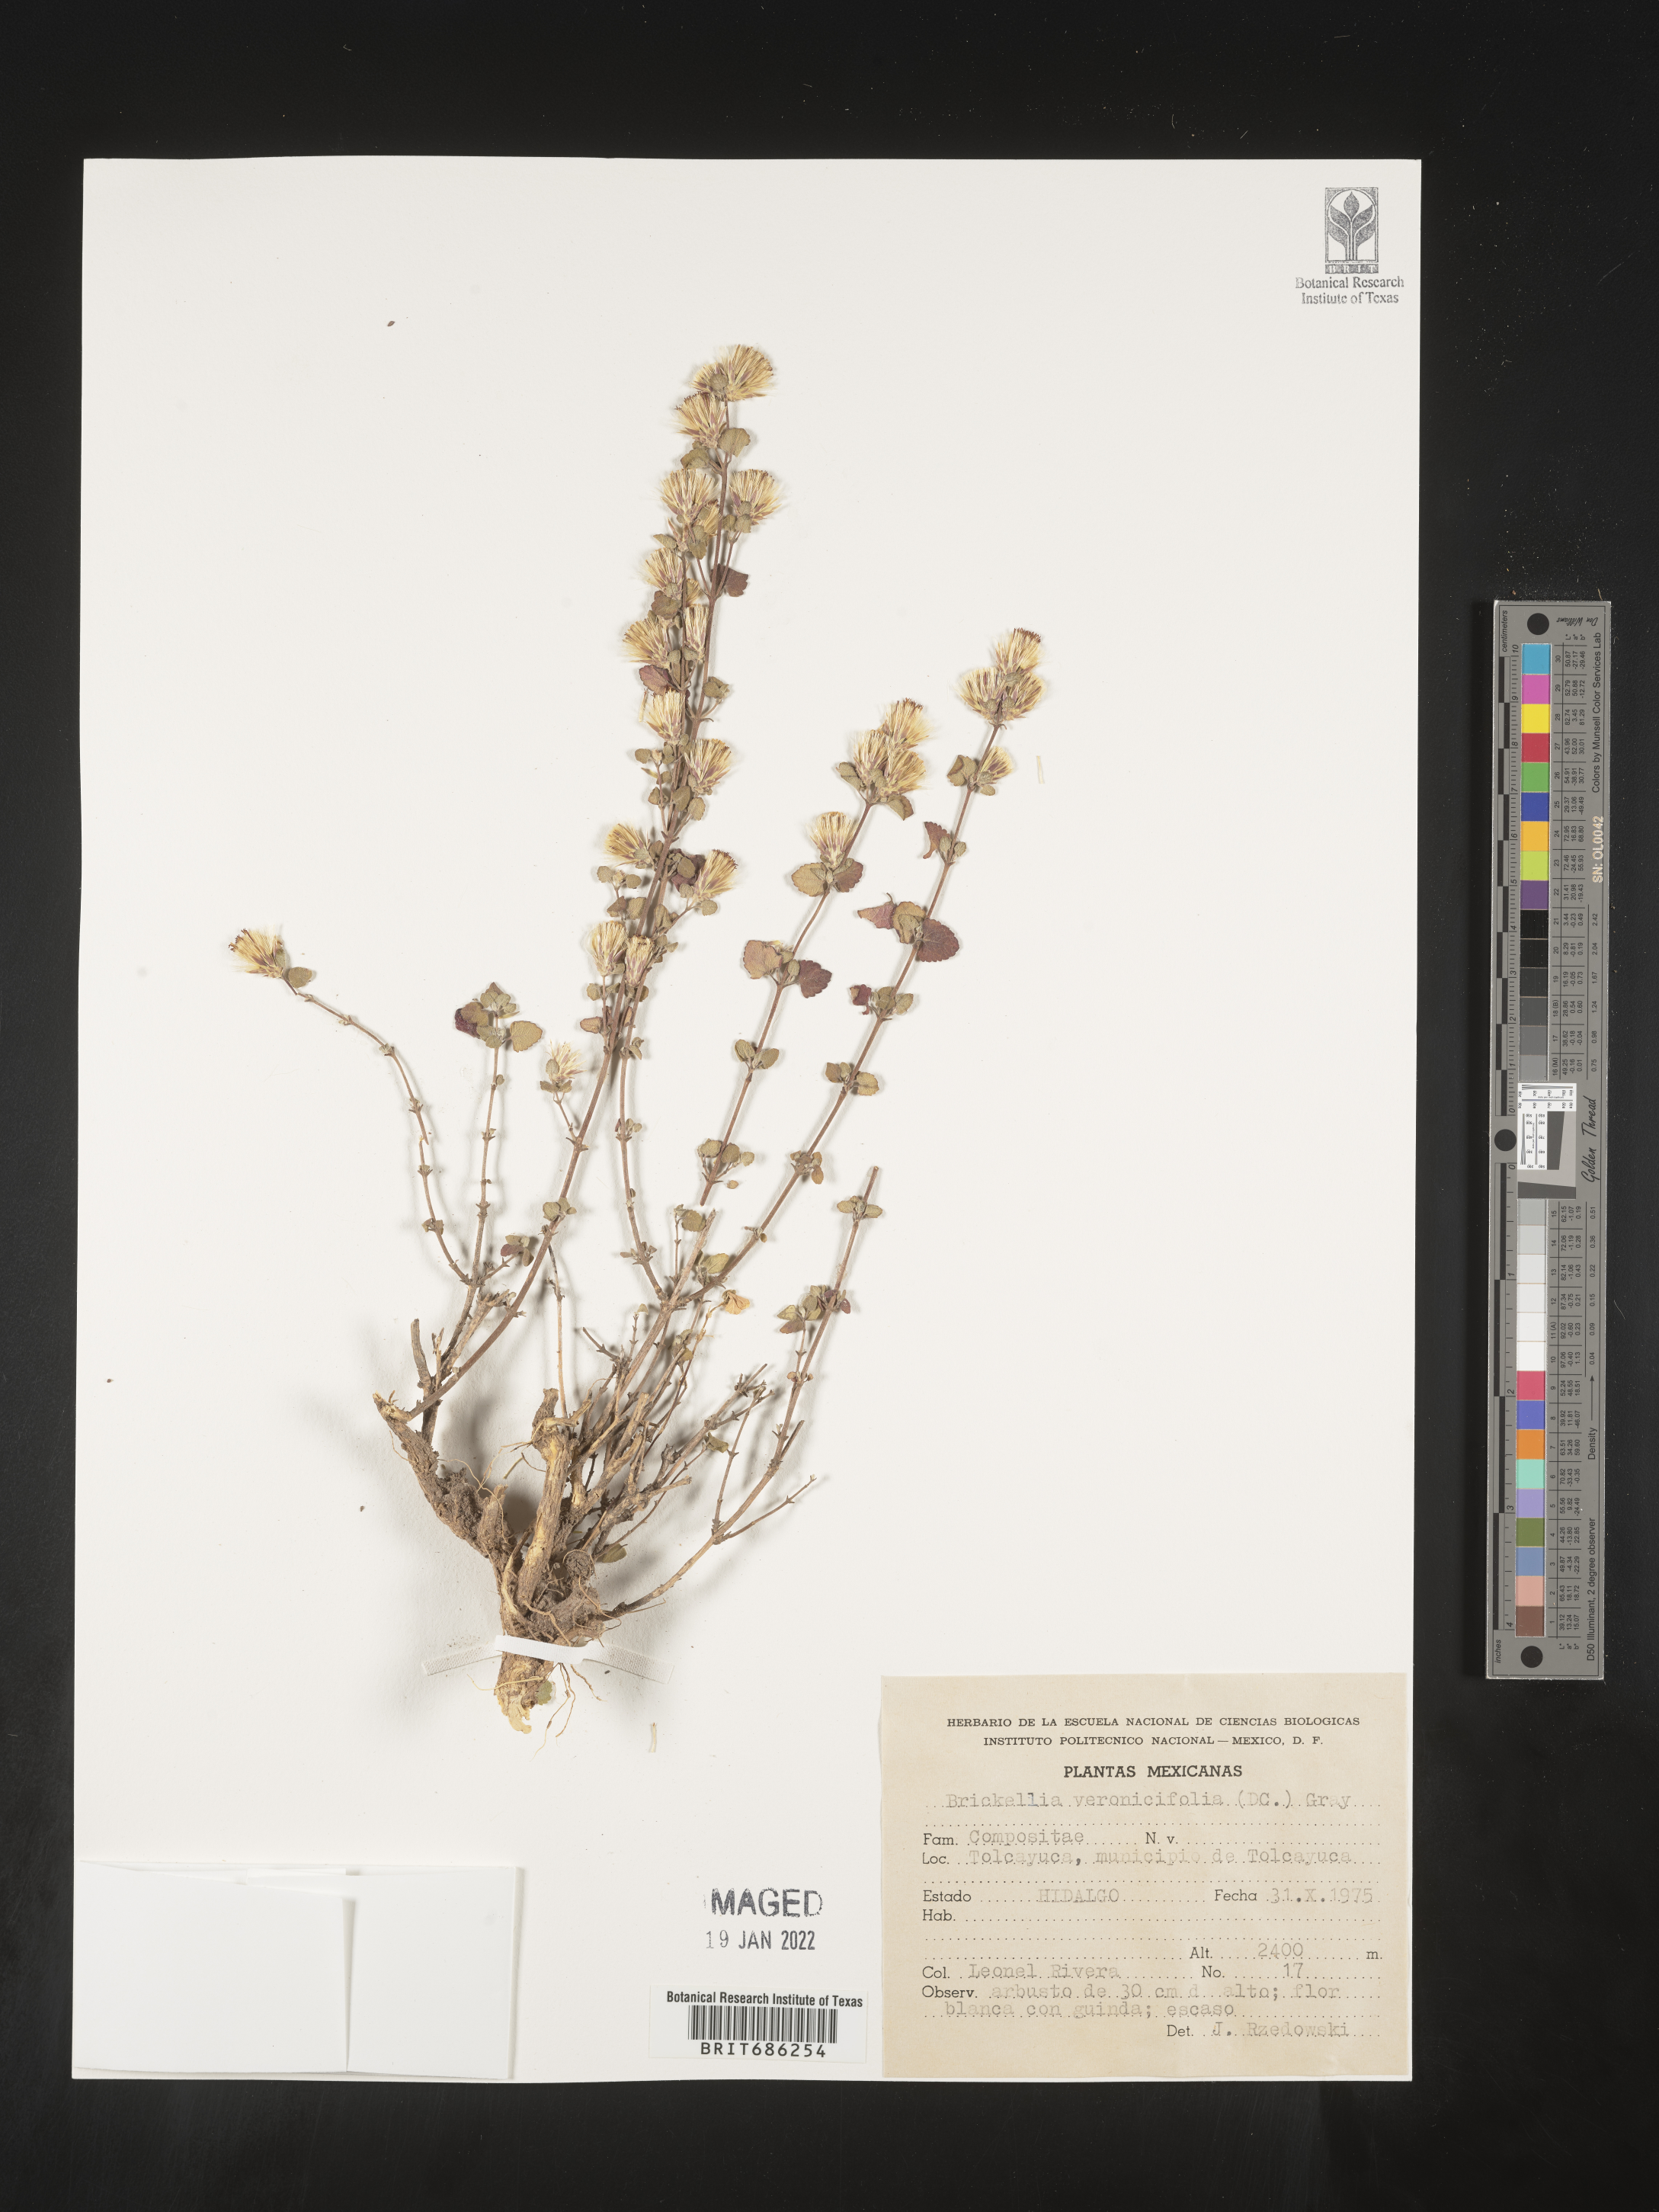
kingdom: Plantae
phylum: Tracheophyta
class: Magnoliopsida
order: Asterales
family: Asteraceae
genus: Brickellia
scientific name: Brickellia veronicifolia
